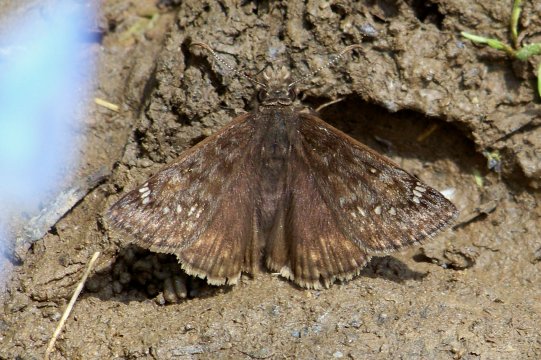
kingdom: Animalia
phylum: Arthropoda
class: Insecta
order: Lepidoptera
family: Hesperiidae
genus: Gesta
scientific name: Gesta
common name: Juvenal's Duskywing
